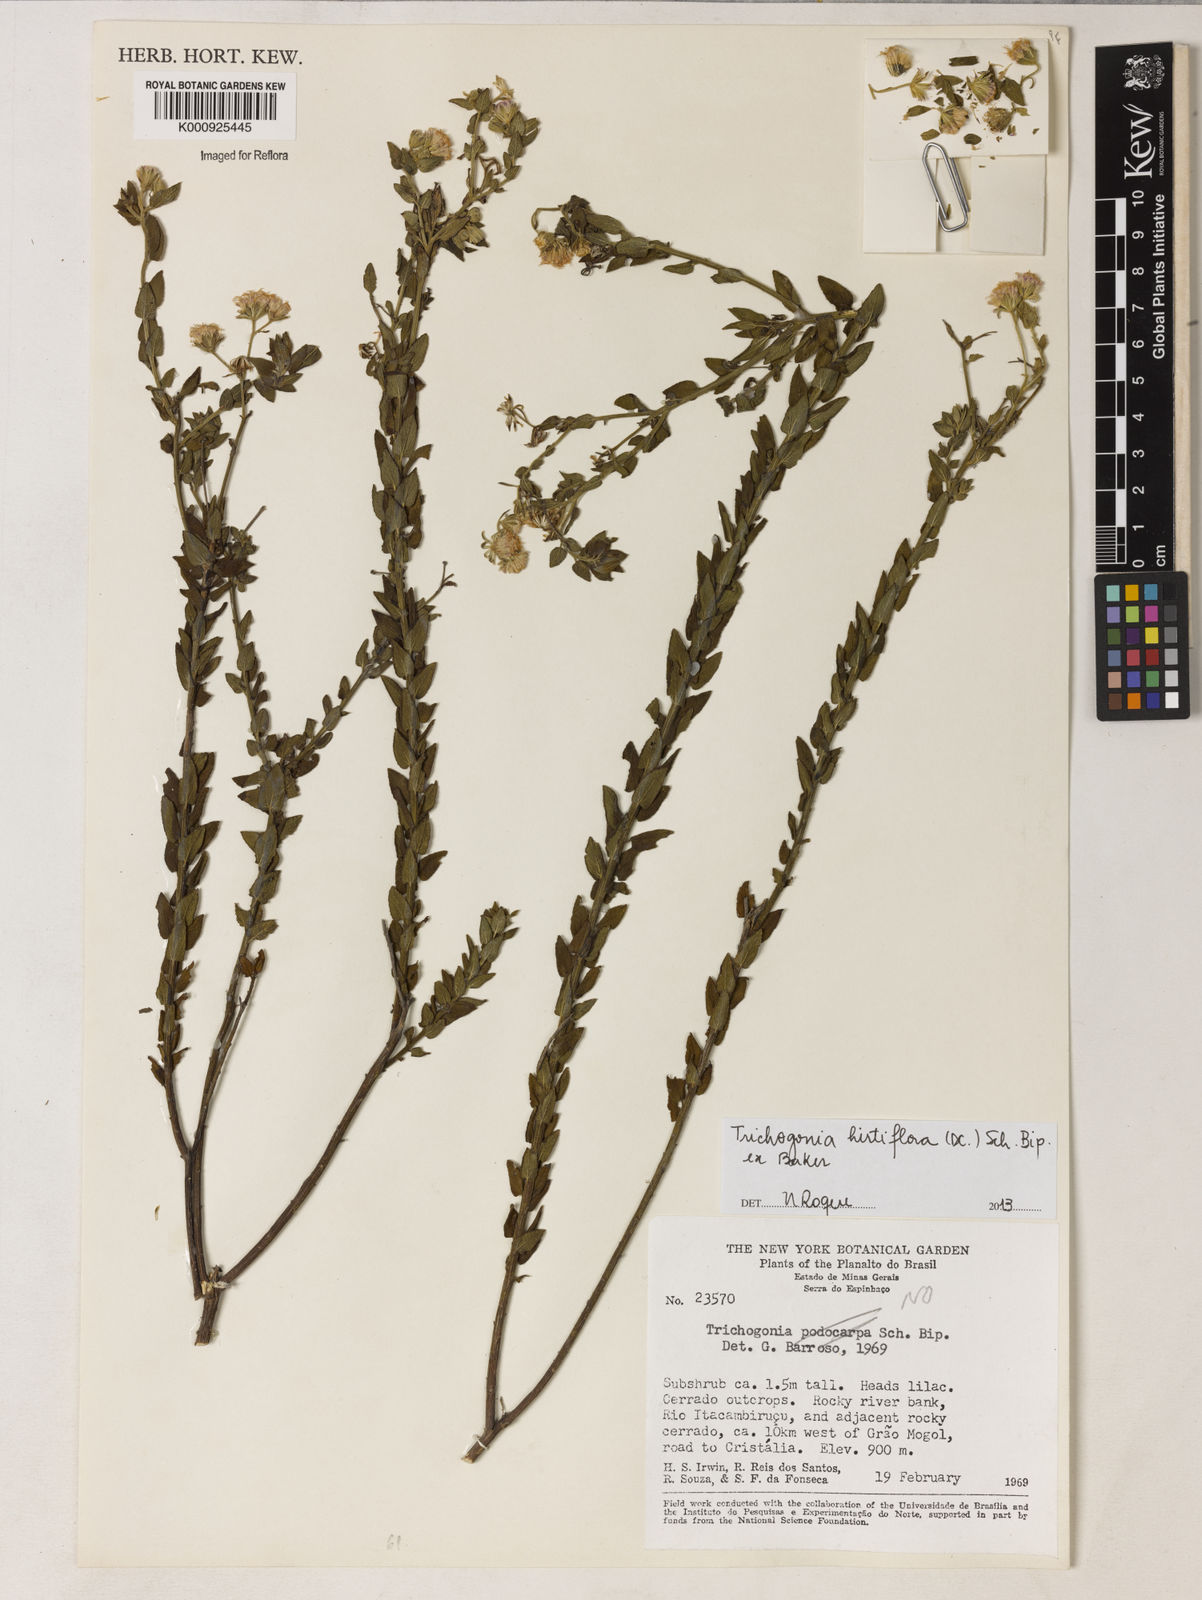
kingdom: Plantae
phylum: Tracheophyta
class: Magnoliopsida
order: Asterales
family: Asteraceae
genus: Trichogonia
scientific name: Trichogonia hirtiflora
